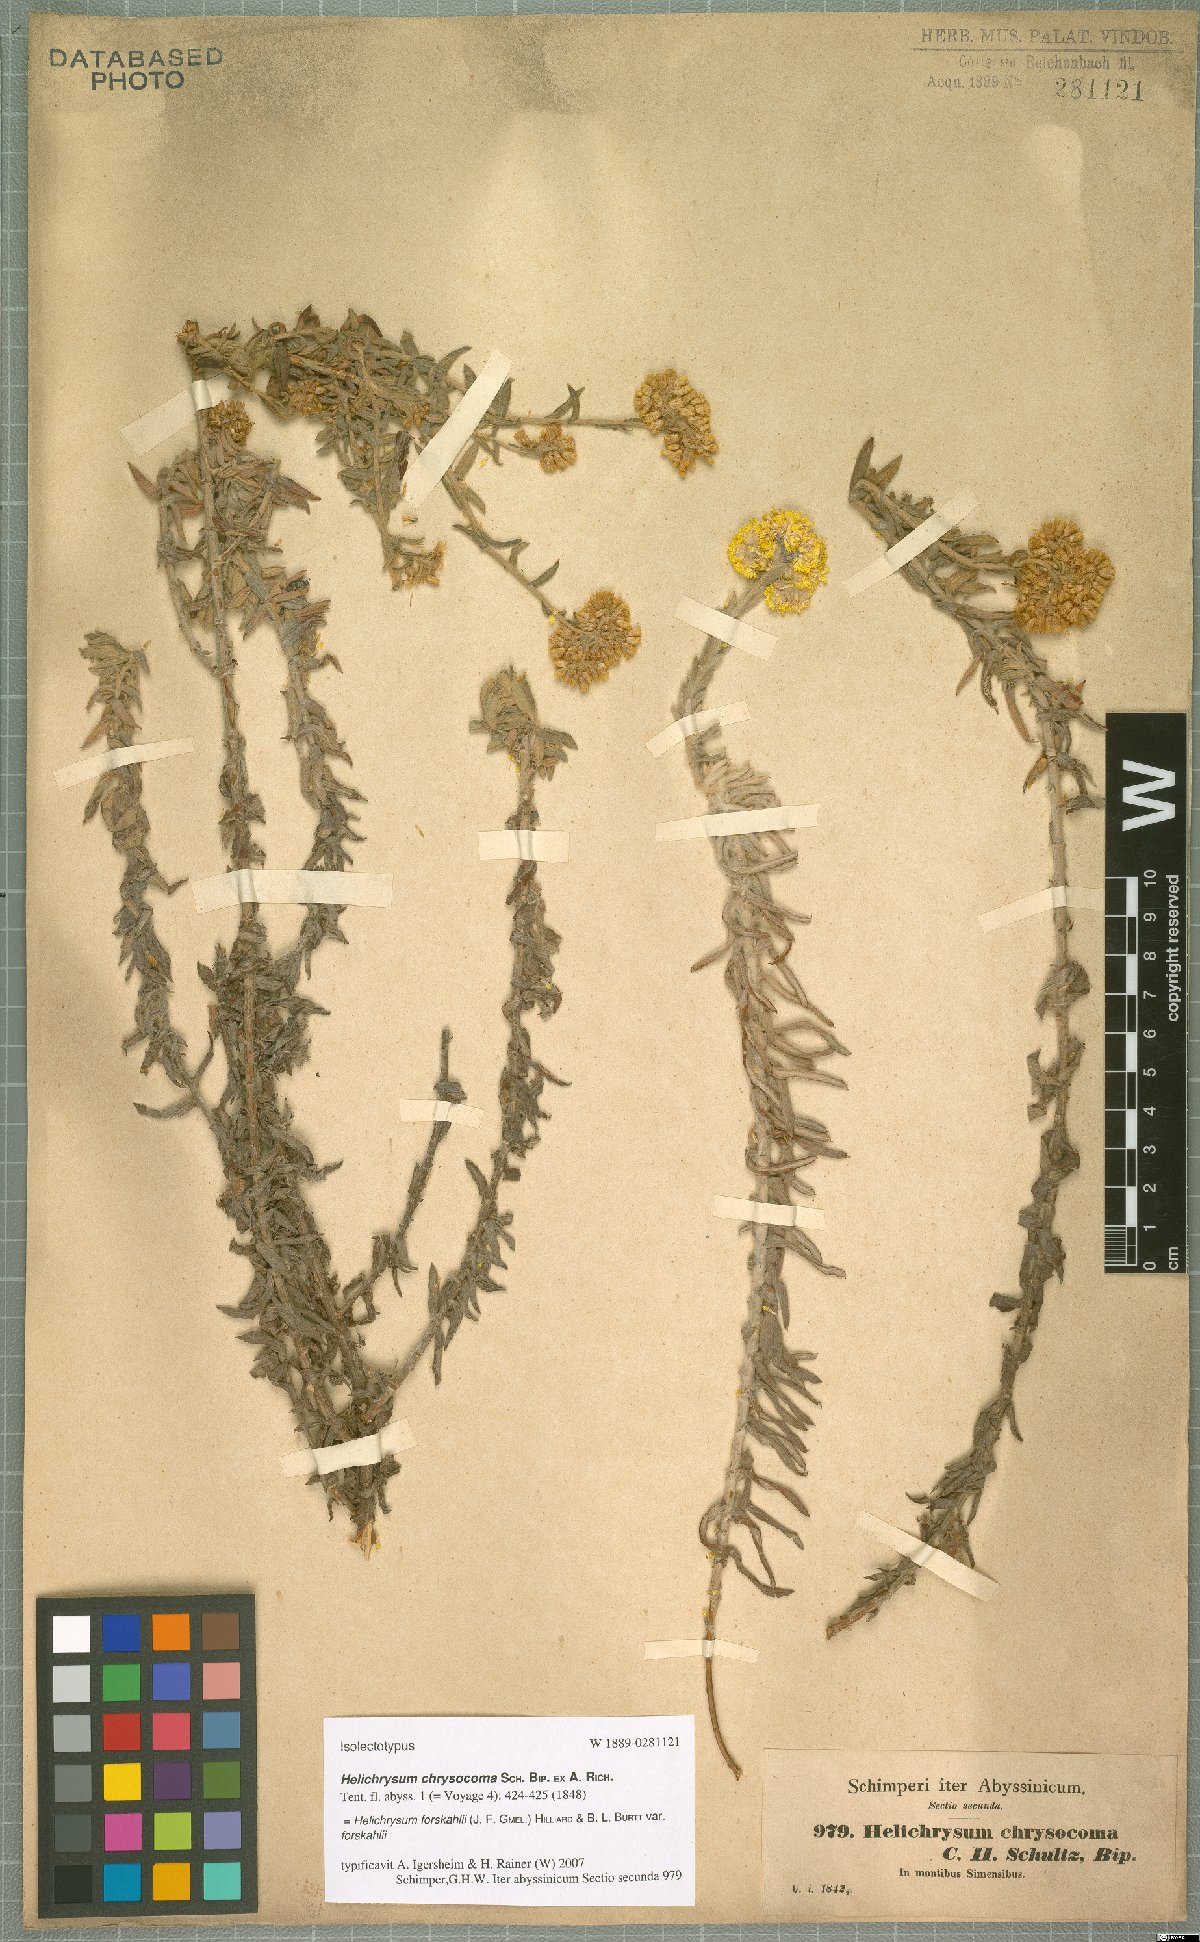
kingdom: Plantae
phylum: Tracheophyta
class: Magnoliopsida
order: Asterales
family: Asteraceae
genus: Helichrysum
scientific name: Helichrysum forskahlii
